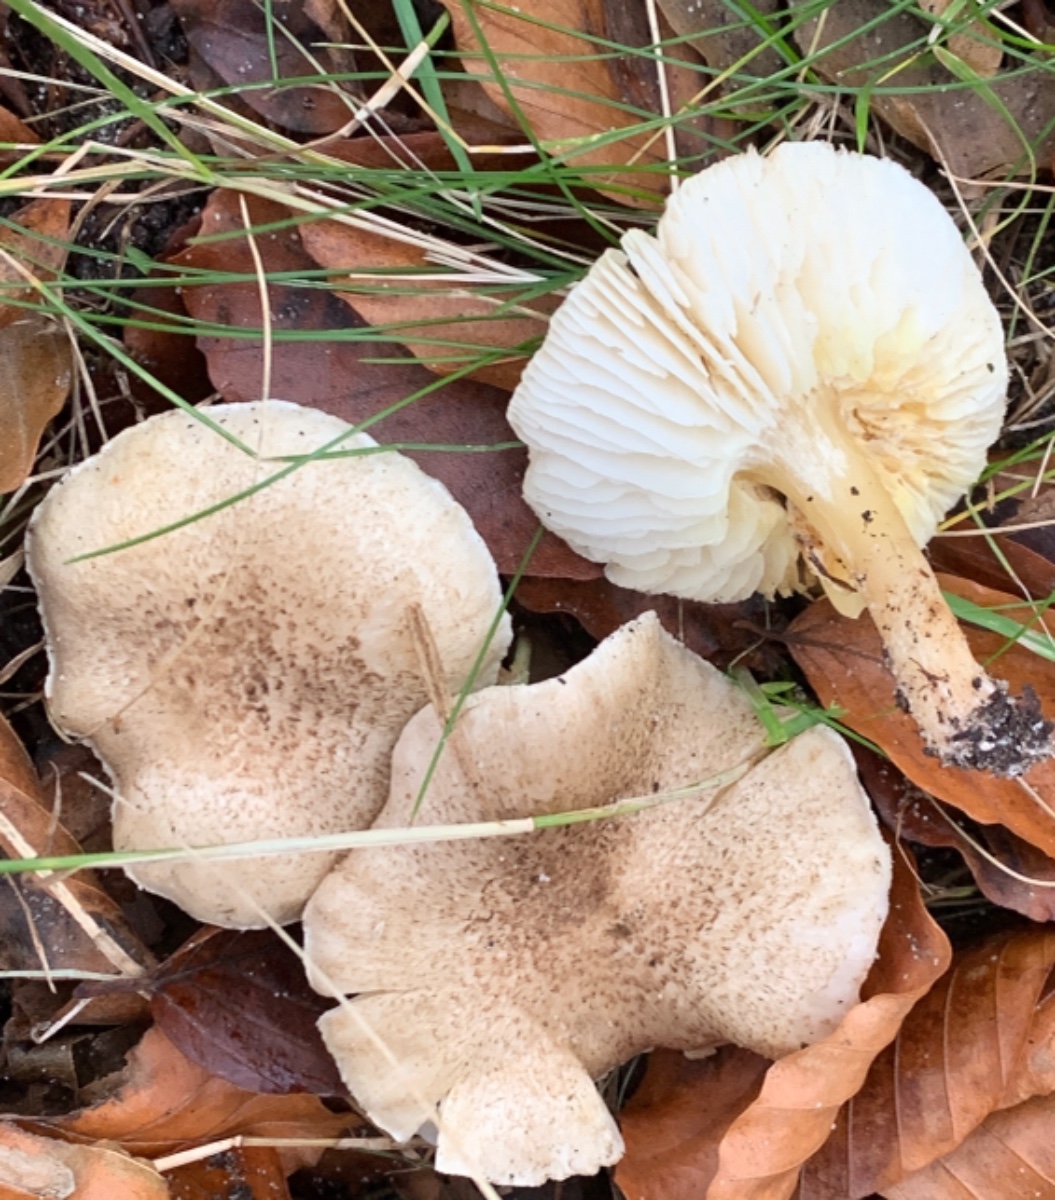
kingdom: Fungi
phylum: Basidiomycota
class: Agaricomycetes
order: Agaricales
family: Tricholomataceae
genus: Tricholoma
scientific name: Tricholoma scalpturatum
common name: gulplettet ridderhat
